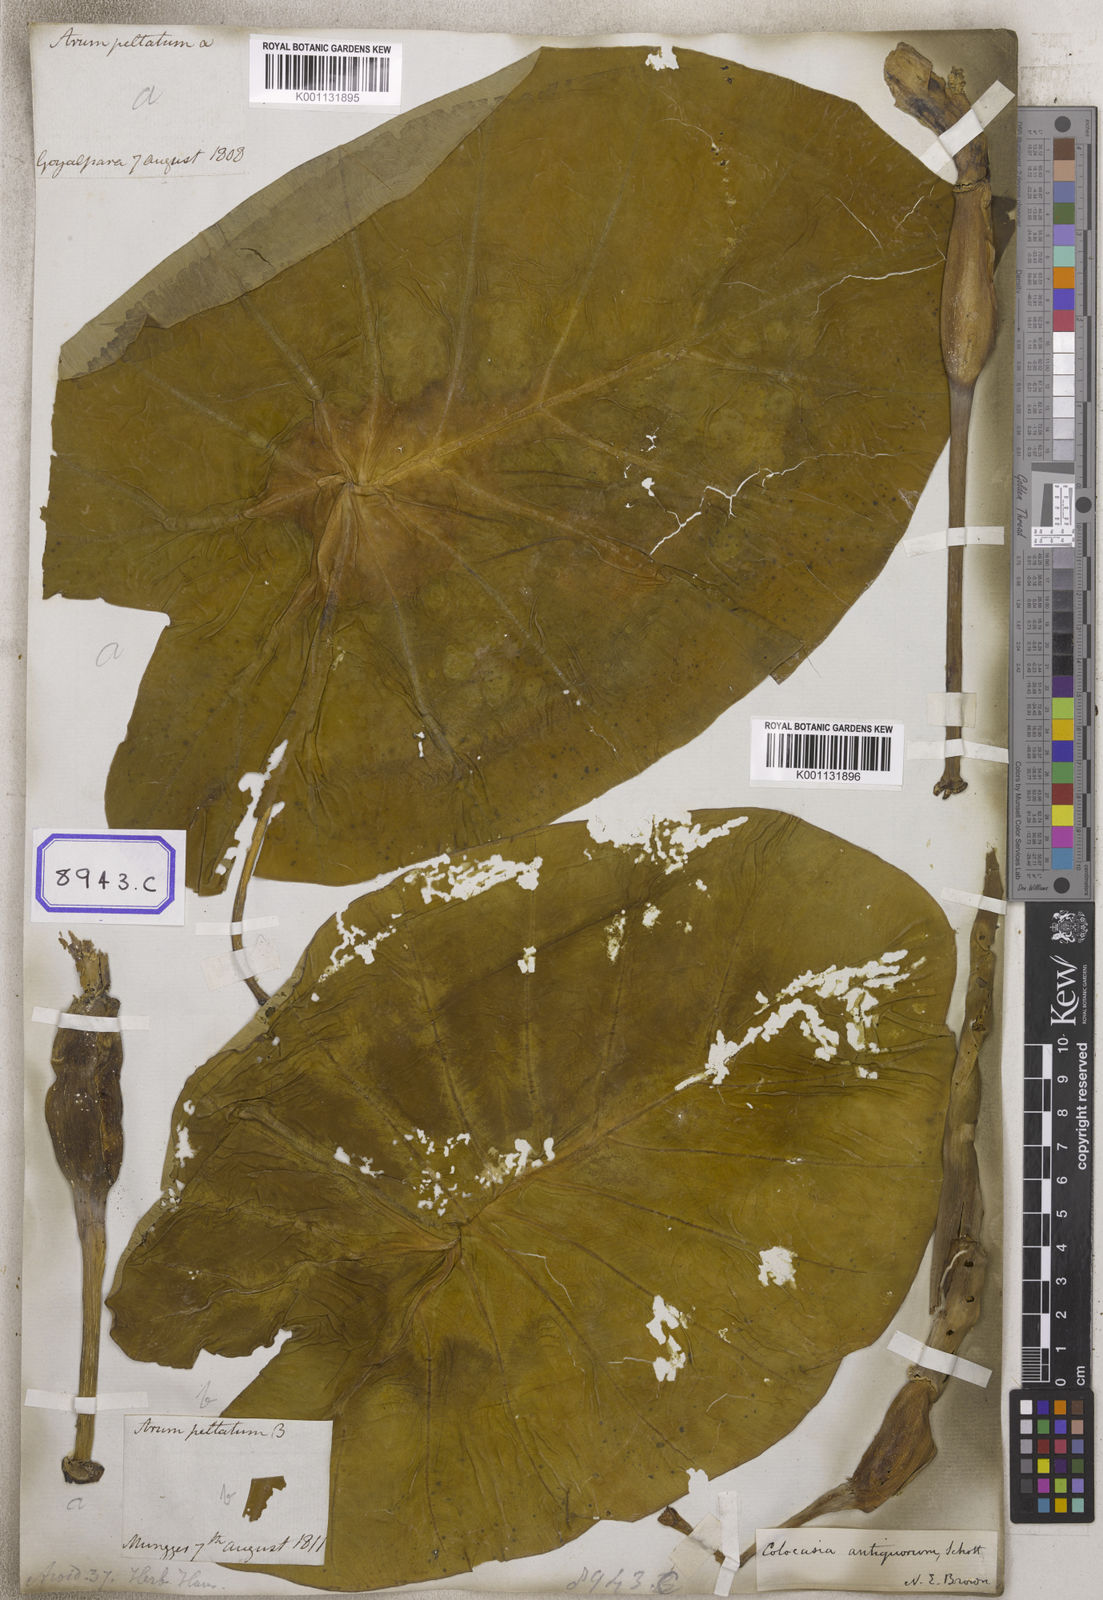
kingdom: Plantae
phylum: Tracheophyta
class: Liliopsida
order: Alismatales
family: Araceae
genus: Colocasia
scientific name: Colocasia spec
